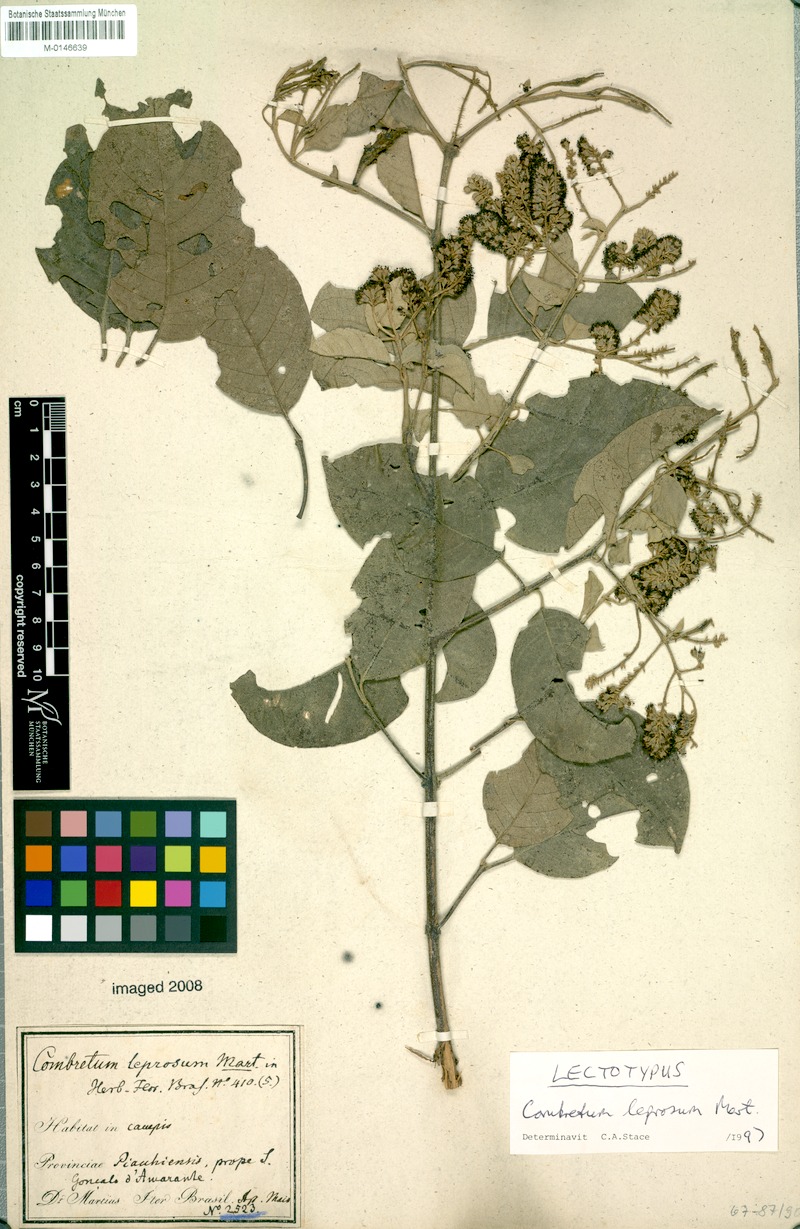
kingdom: Plantae
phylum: Tracheophyta
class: Magnoliopsida
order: Myrtales
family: Combretaceae
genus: Combretum
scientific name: Combretum leprosum
